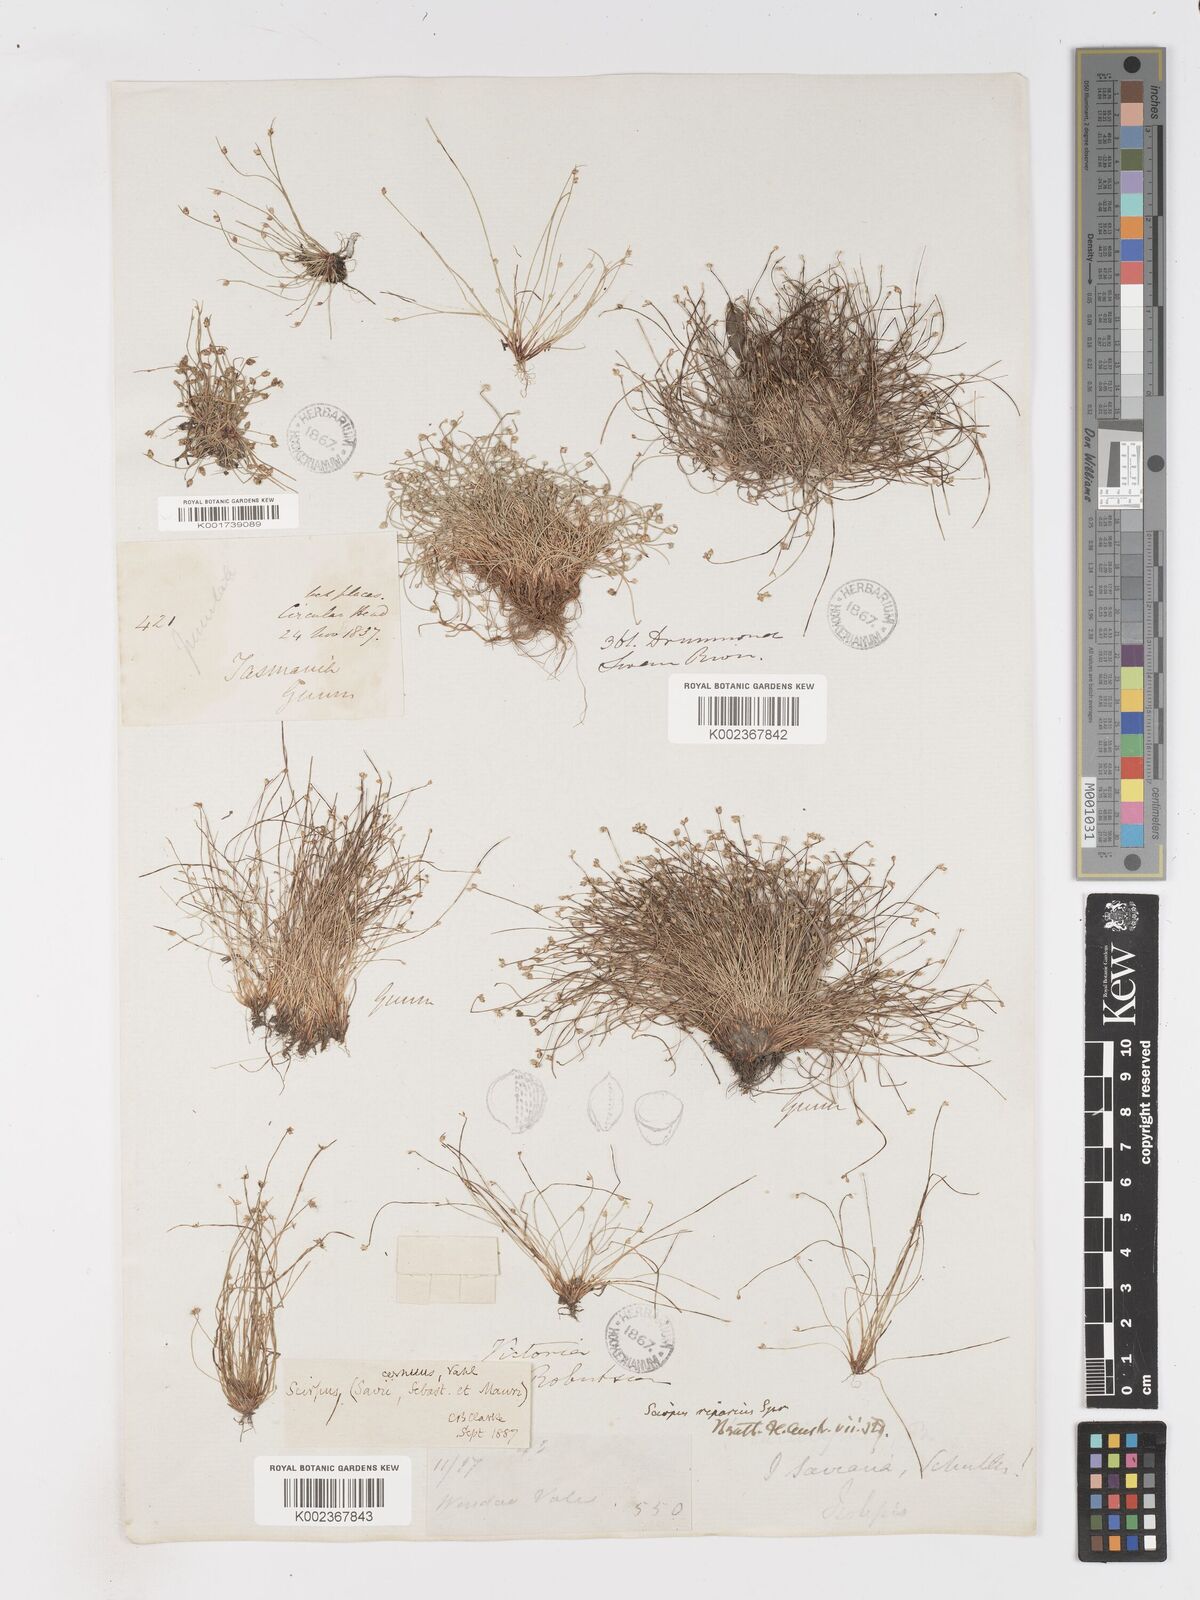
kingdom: Plantae
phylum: Tracheophyta
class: Liliopsida
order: Poales
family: Cyperaceae
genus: Isolepis
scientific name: Isolepis cernua
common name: Slender club-rush
